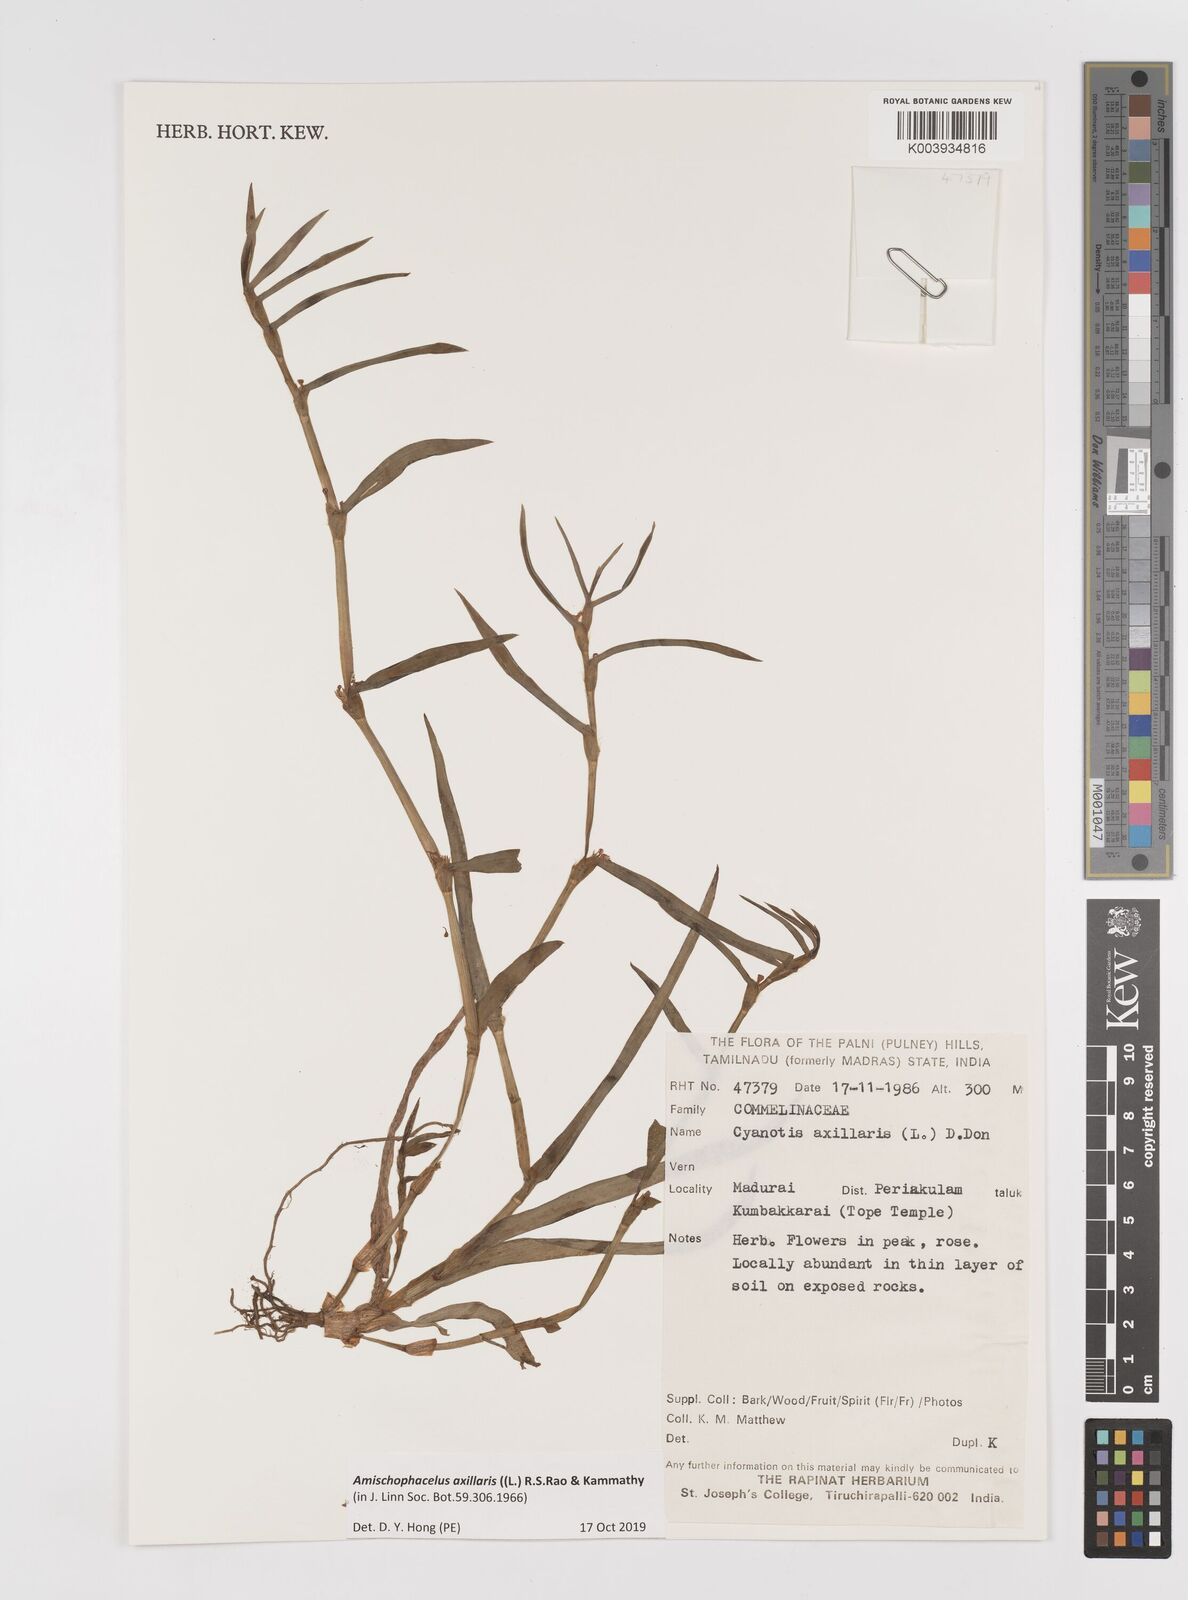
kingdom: Plantae
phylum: Tracheophyta
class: Liliopsida
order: Commelinales
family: Commelinaceae
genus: Cyanotis
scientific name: Cyanotis axillaris
